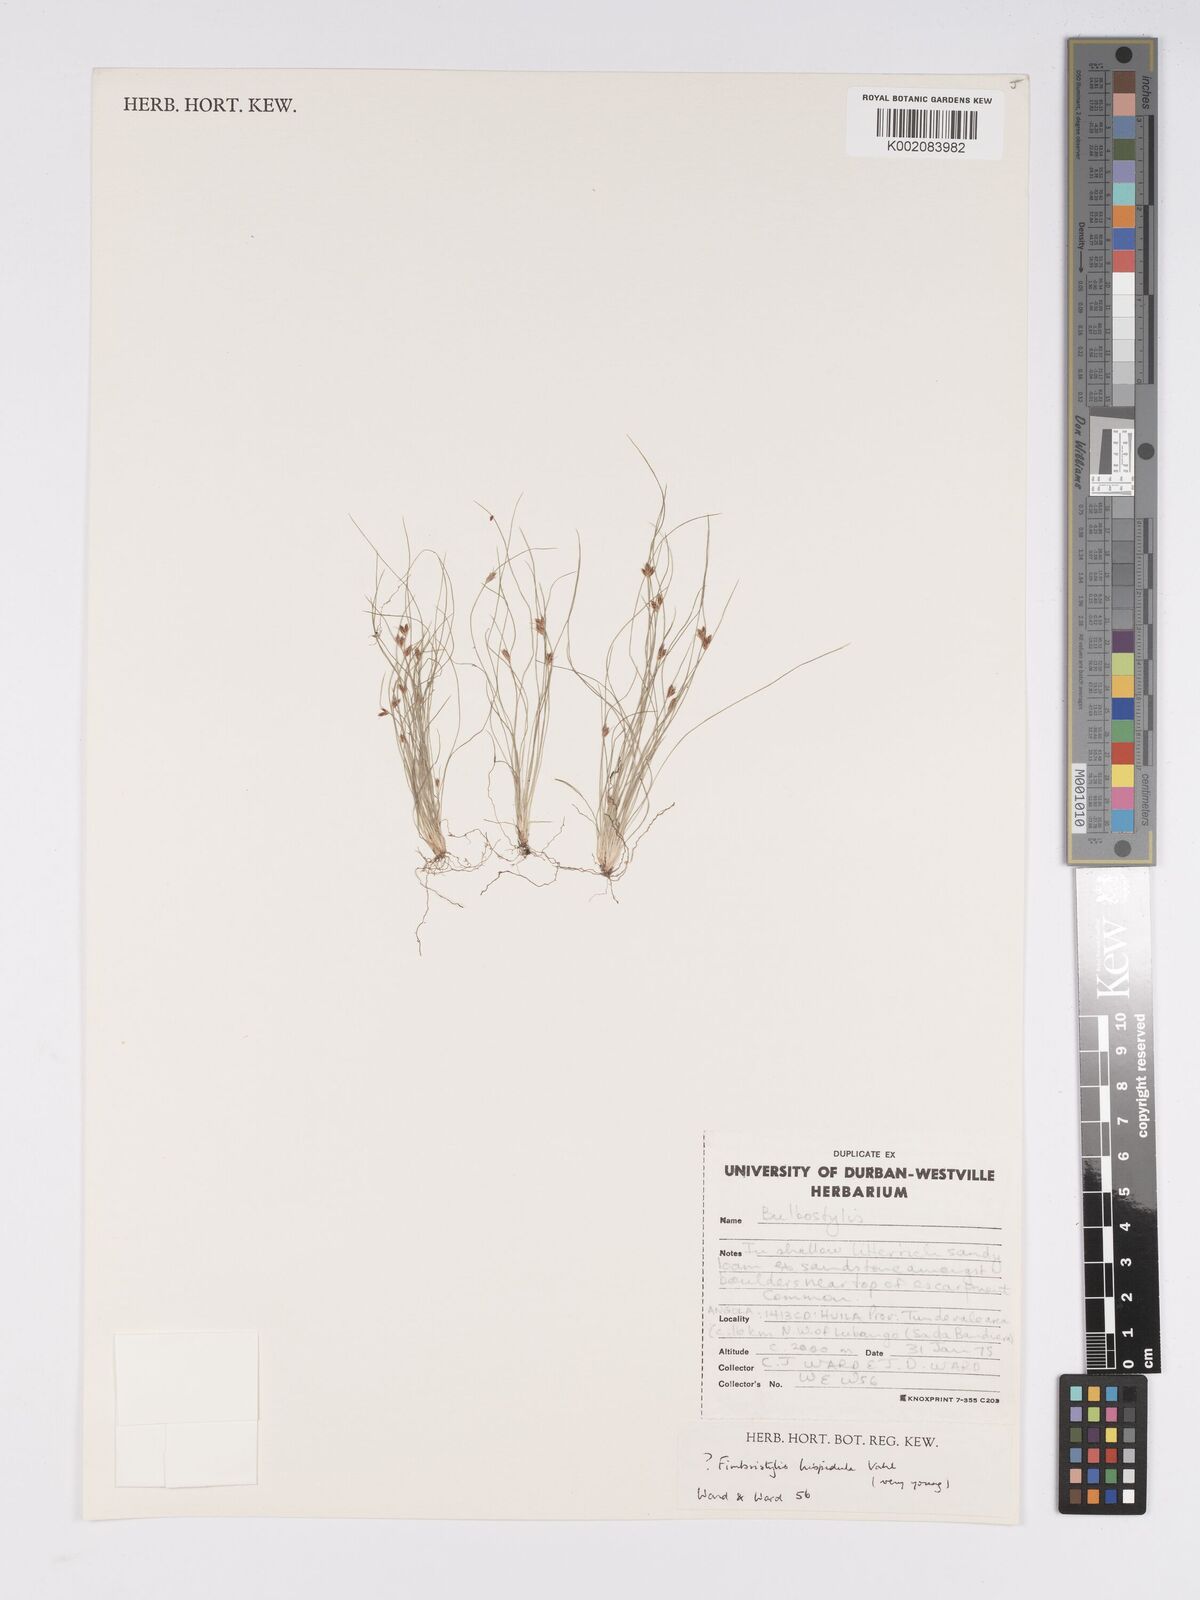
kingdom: Plantae
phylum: Tracheophyta
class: Liliopsida
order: Poales
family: Cyperaceae
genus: Bulbostylis
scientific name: Bulbostylis hispidula
